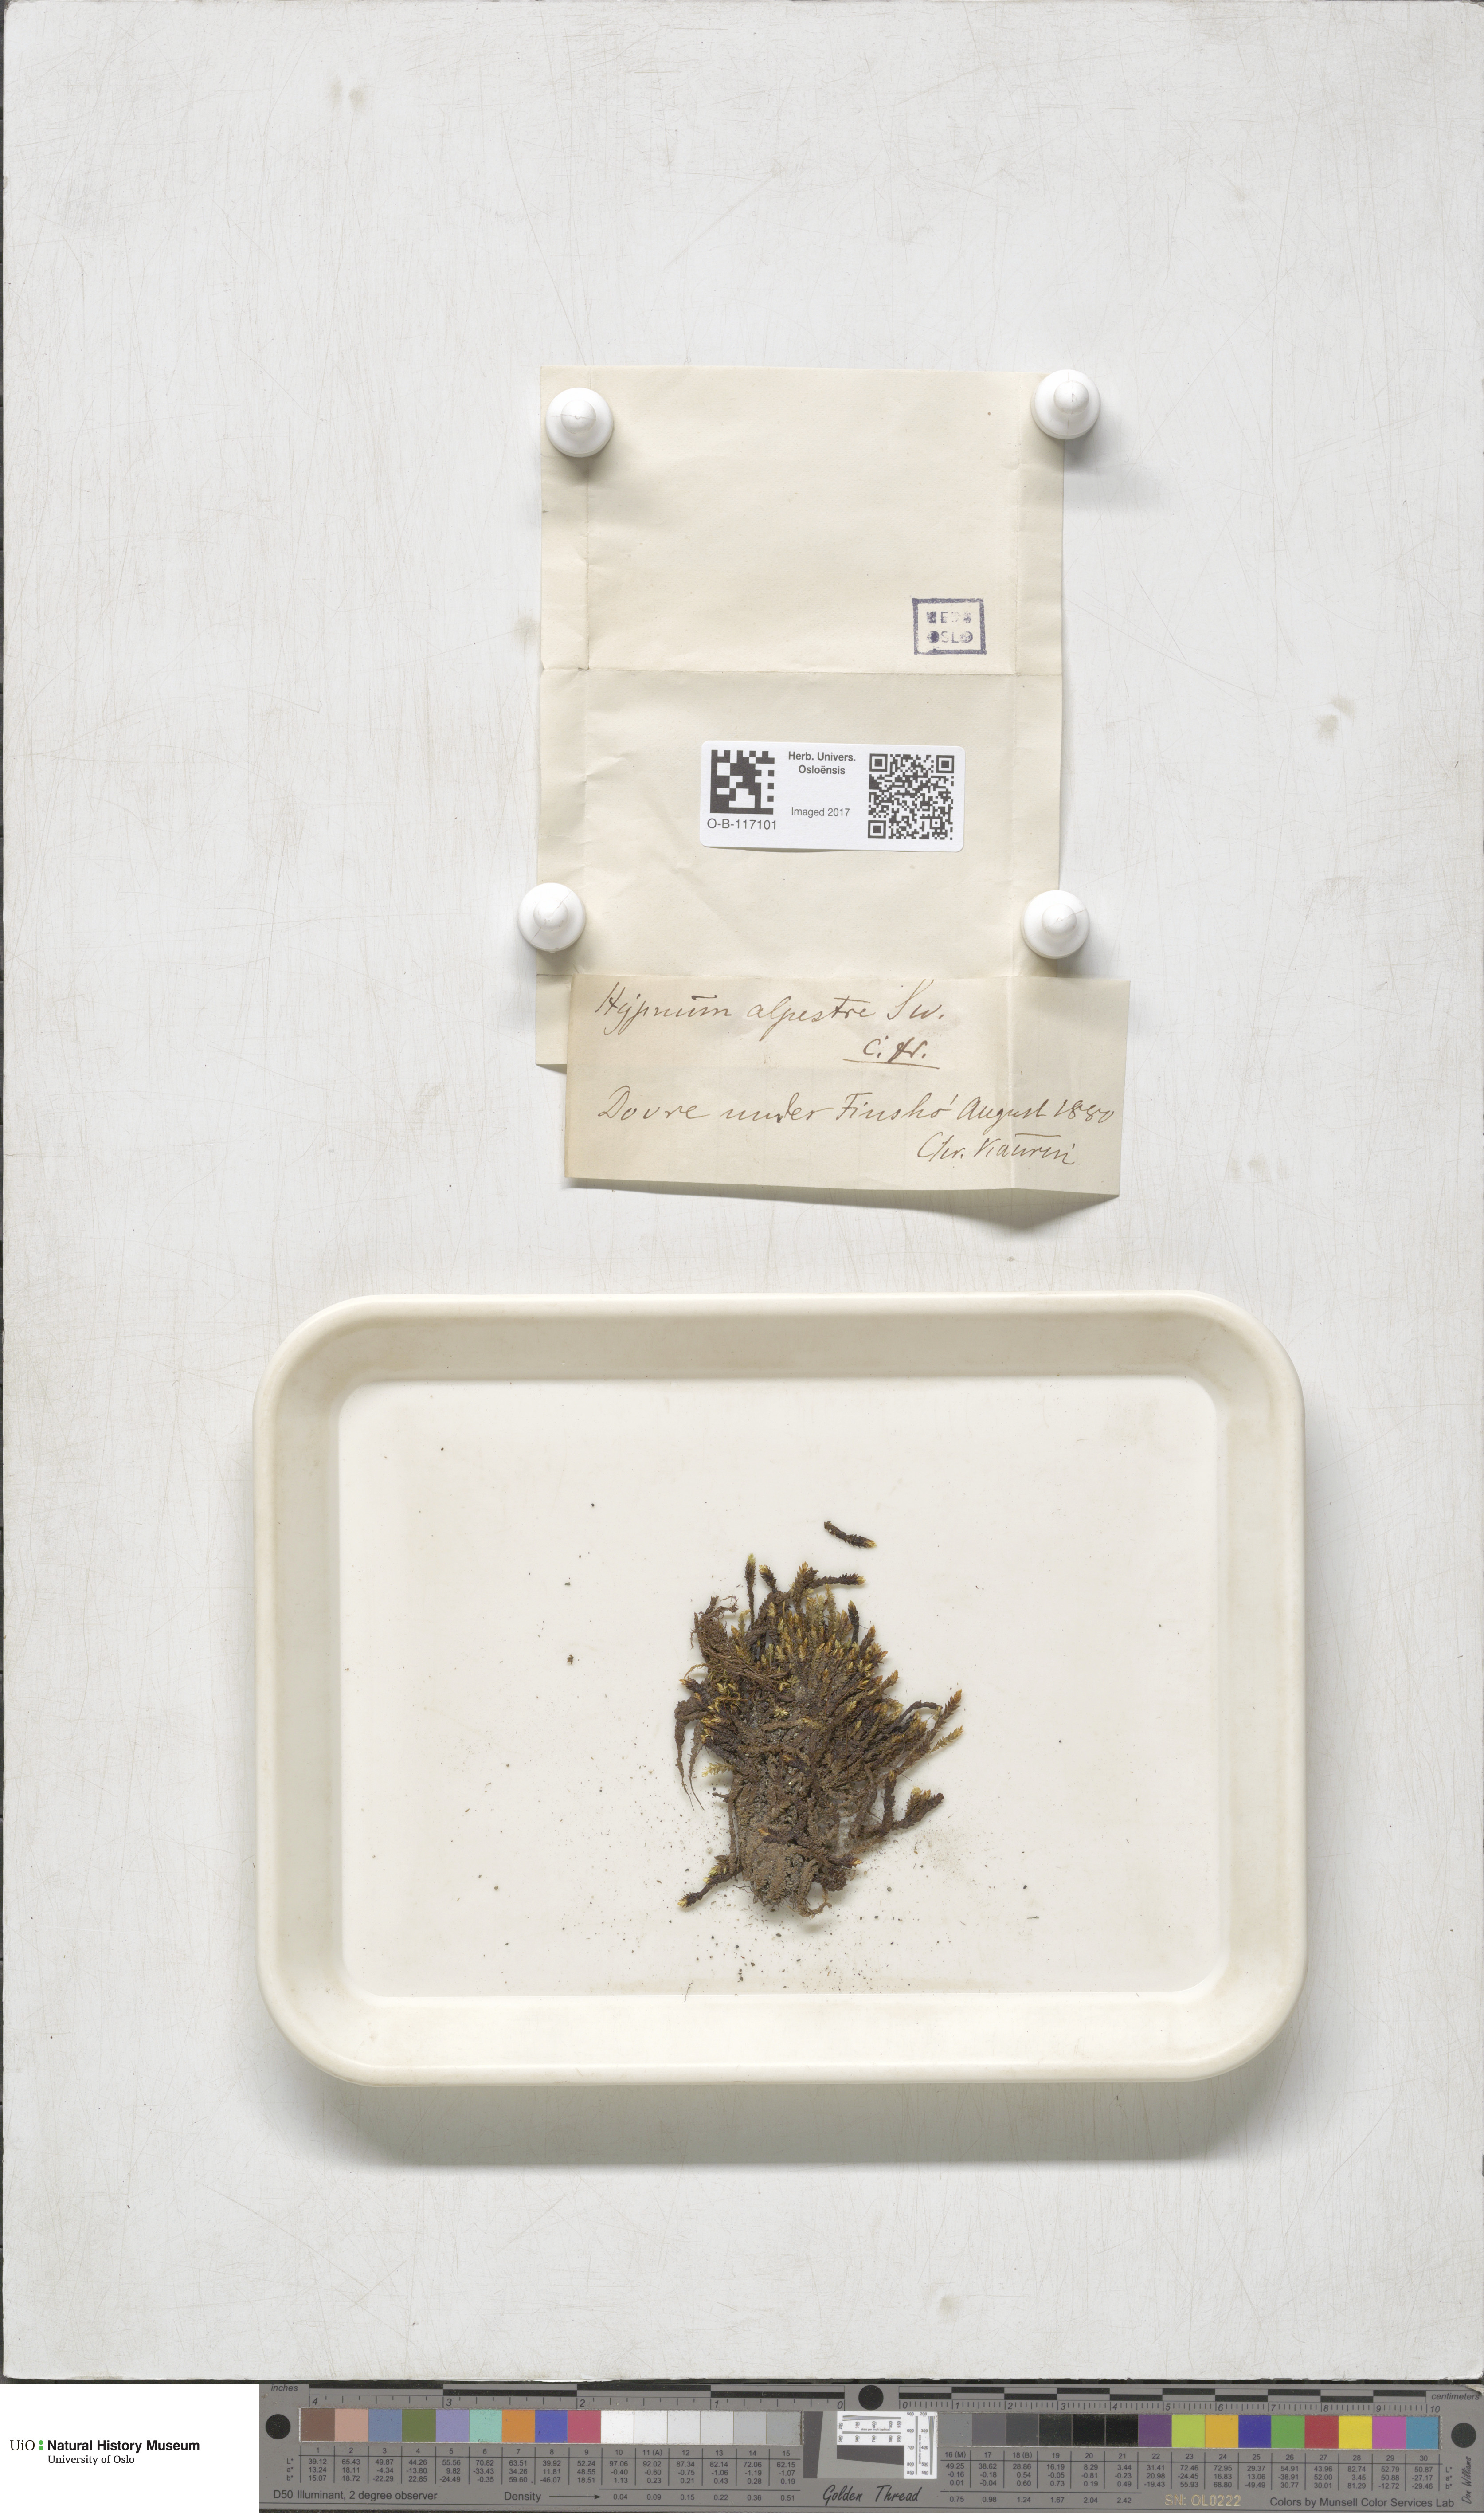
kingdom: Plantae
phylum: Bryophyta
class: Bryopsida
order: Hypnales
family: Amblystegiaceae
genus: Platyhypnum
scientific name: Platyhypnum alpestre
